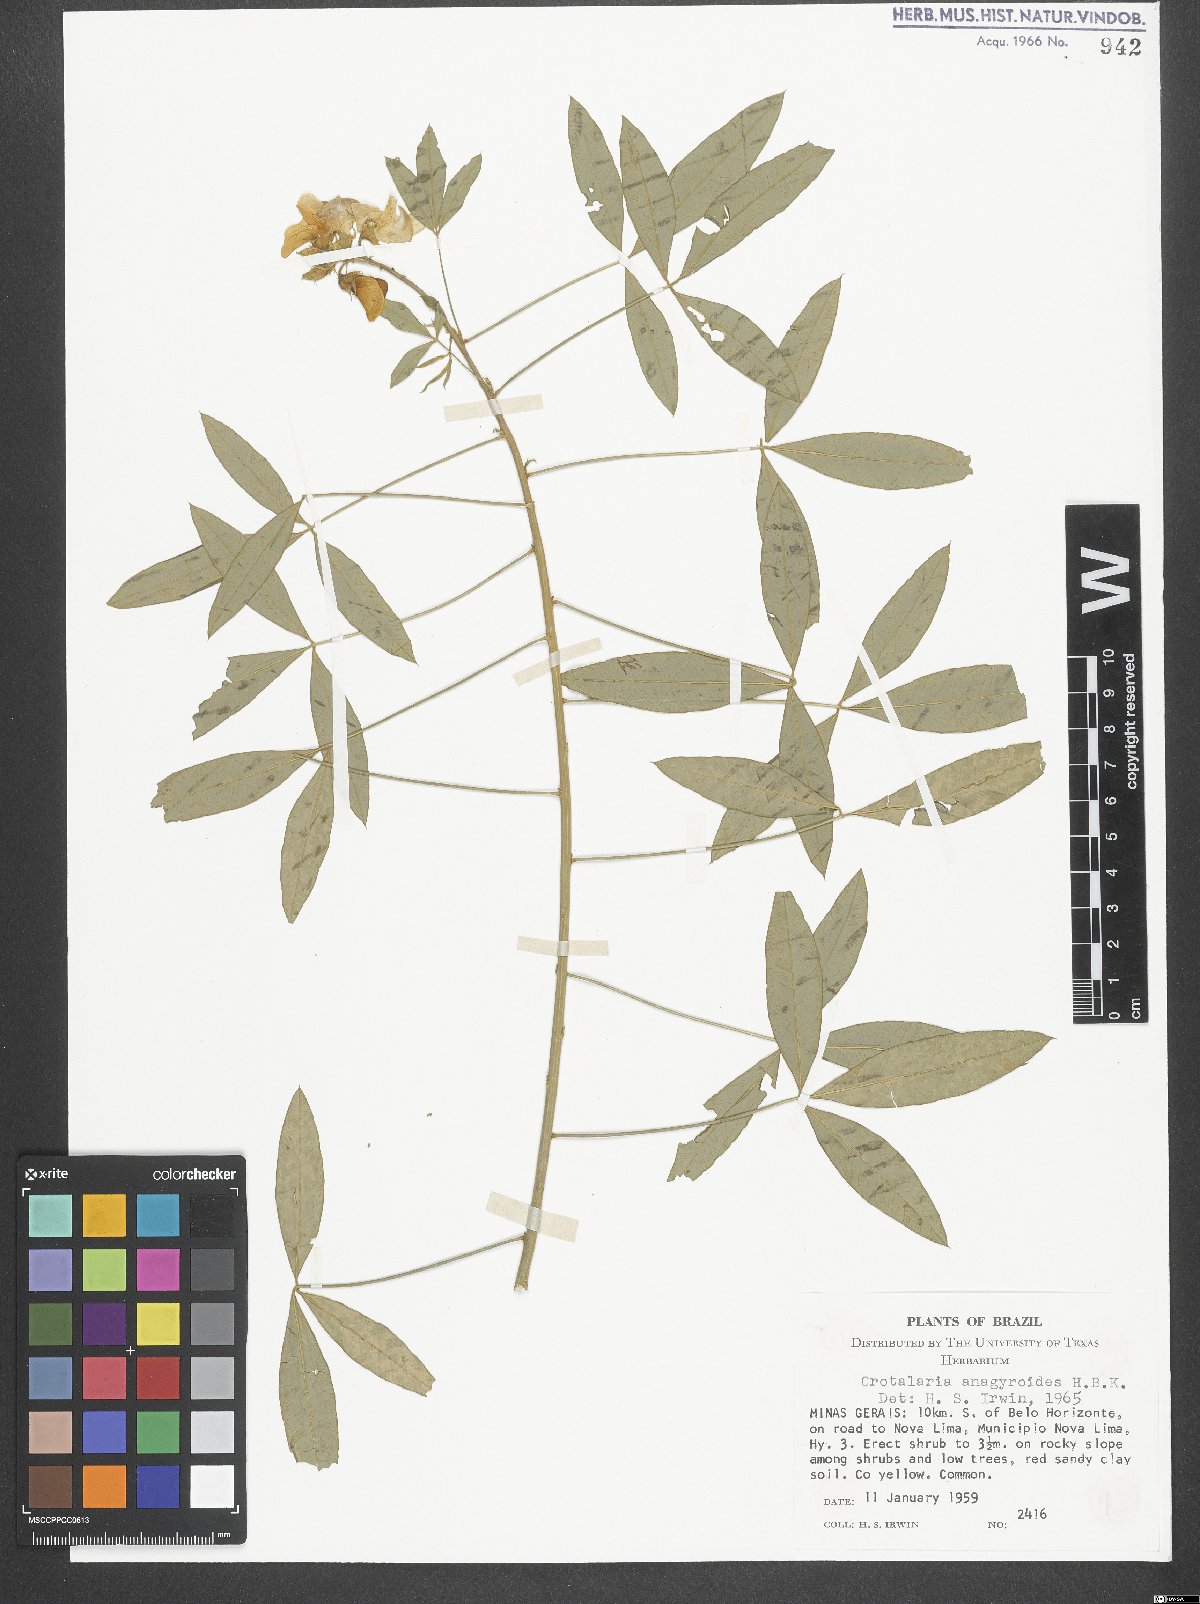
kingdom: Plantae
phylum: Tracheophyta
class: Magnoliopsida
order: Fabales
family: Fabaceae
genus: Crotalaria
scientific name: Crotalaria micans
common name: Caracas rattlebox
